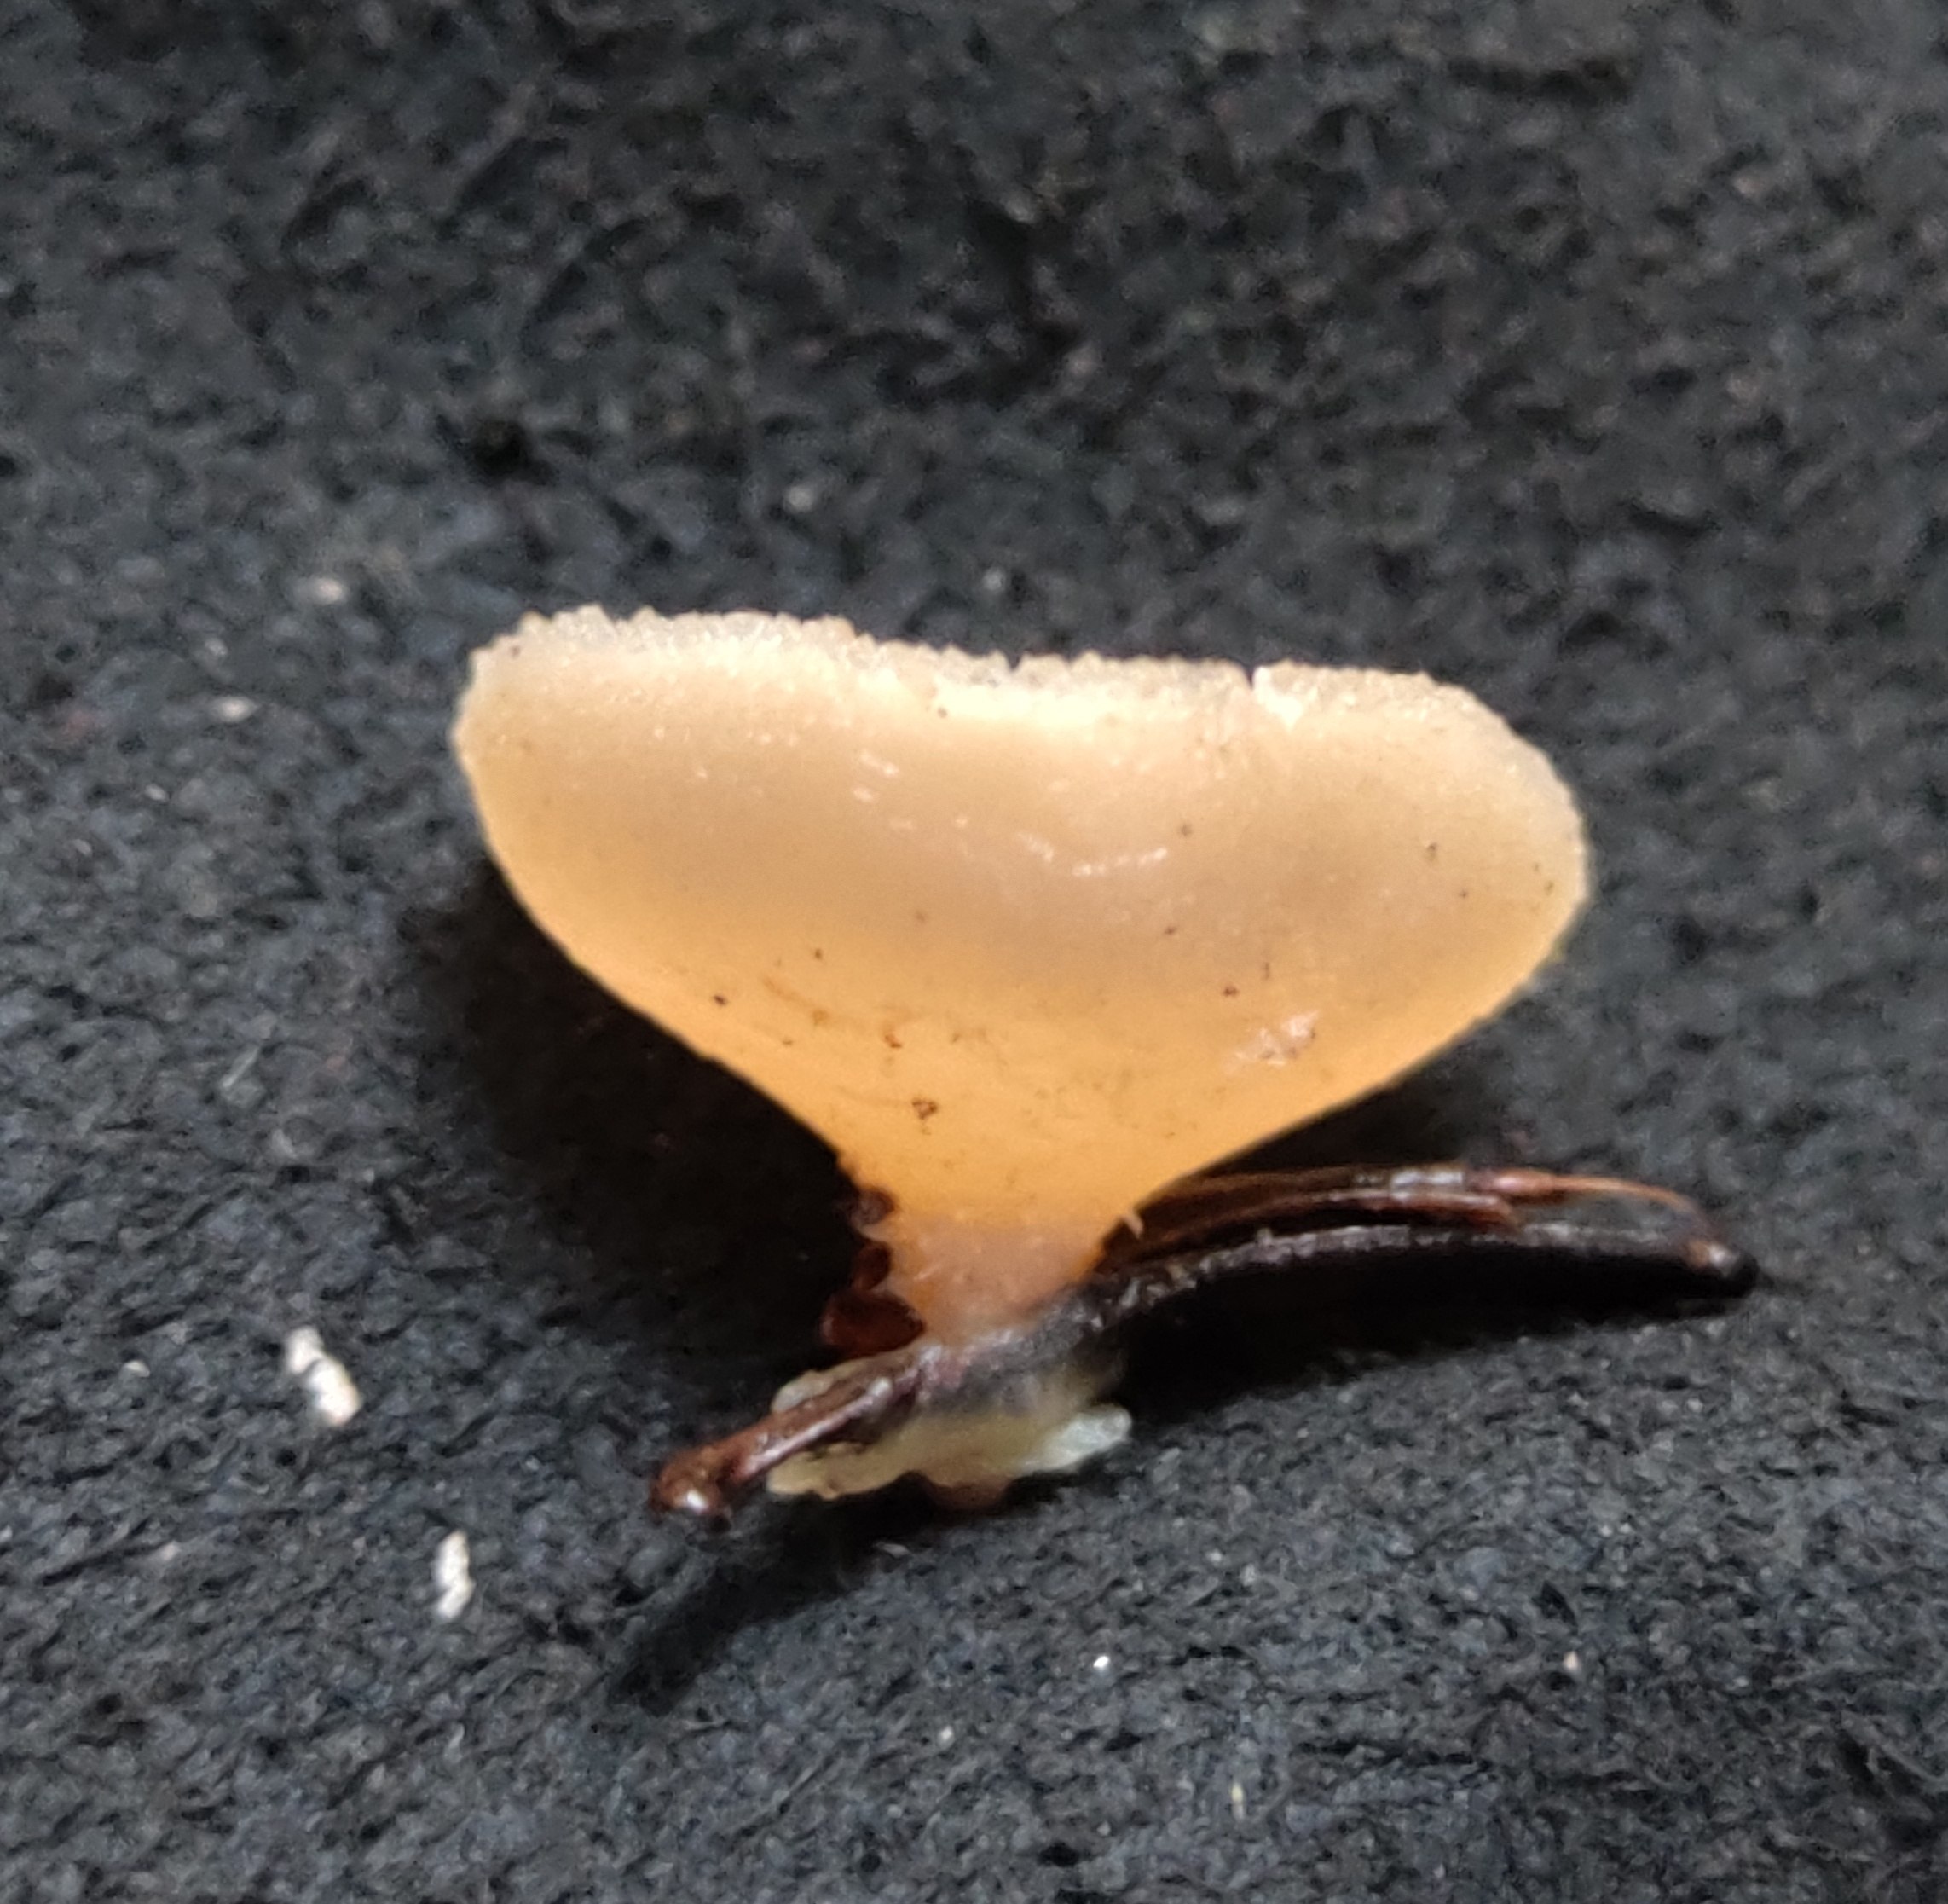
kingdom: Fungi
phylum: Ascomycota
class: Pezizomycetes
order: Pezizales
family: Pezizaceae
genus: Peziza
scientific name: Peziza
